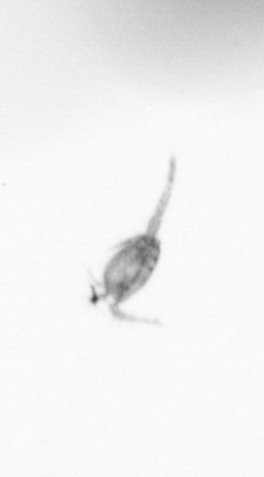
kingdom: Animalia
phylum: Arthropoda
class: Copepoda
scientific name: Copepoda
